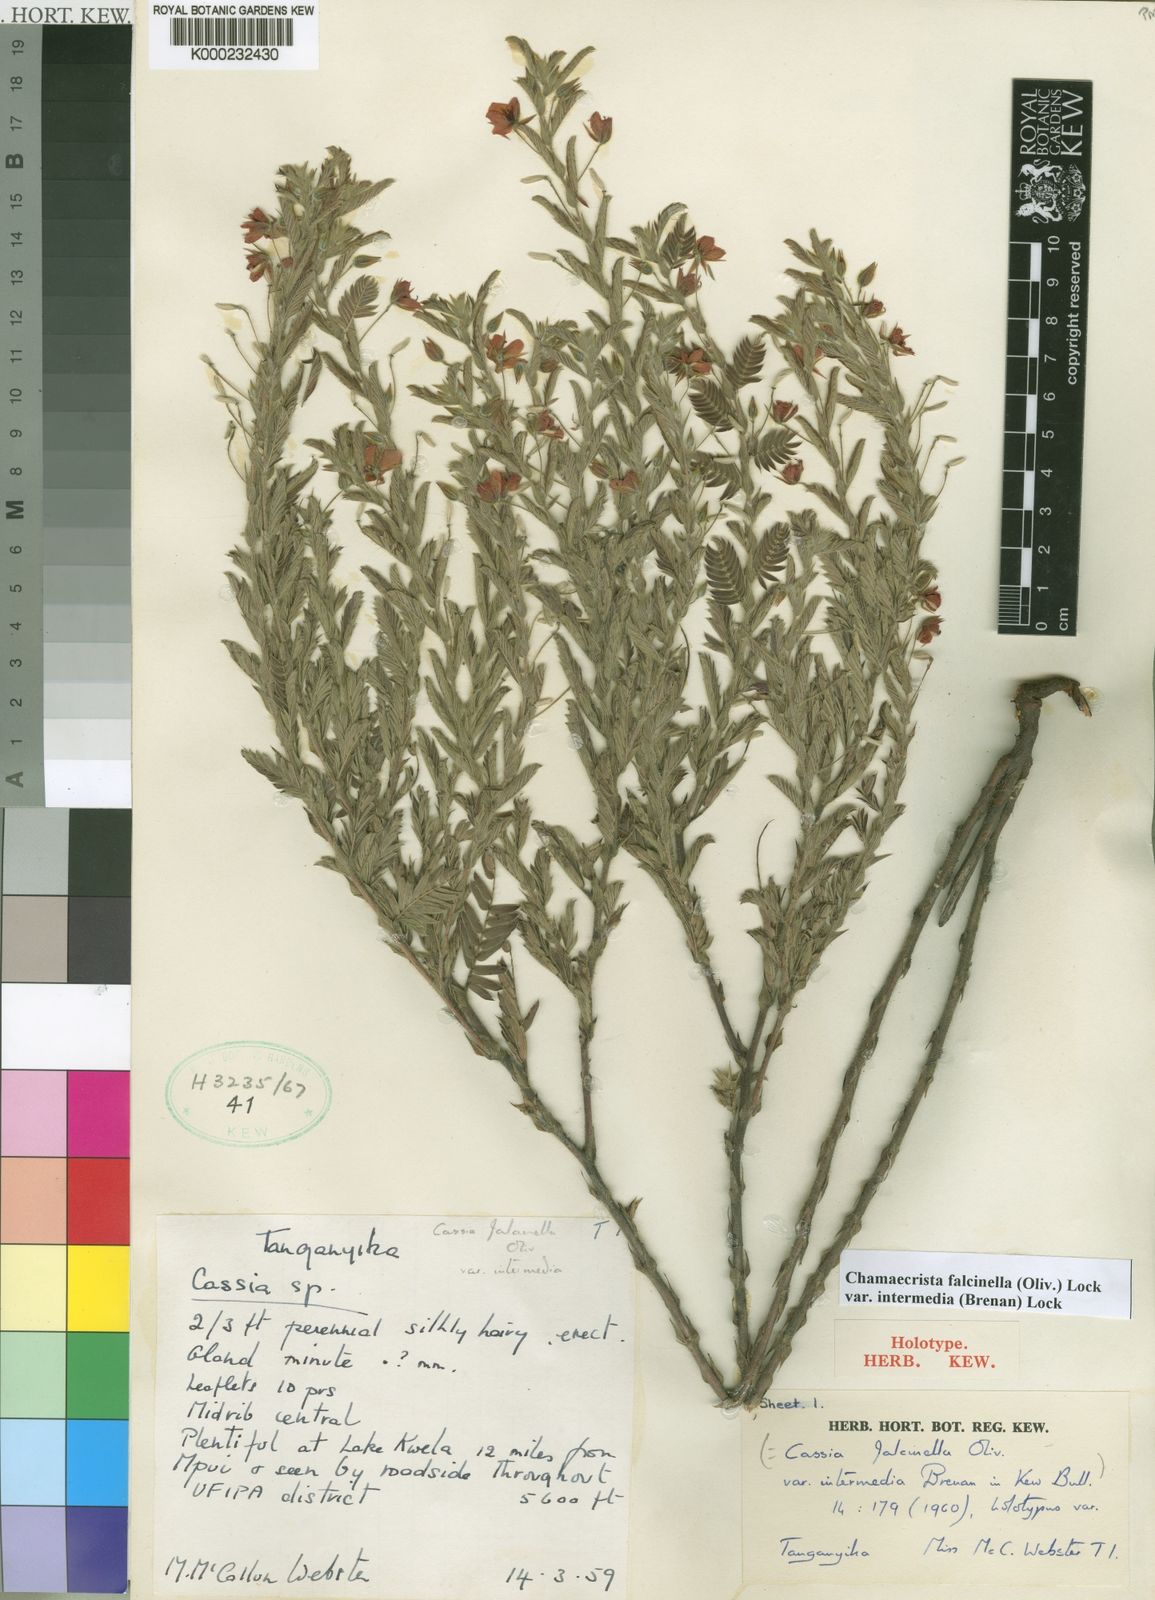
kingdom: Plantae
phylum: Tracheophyta
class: Magnoliopsida
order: Fabales
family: Fabaceae
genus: Chamaecrista
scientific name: Chamaecrista falcinella
